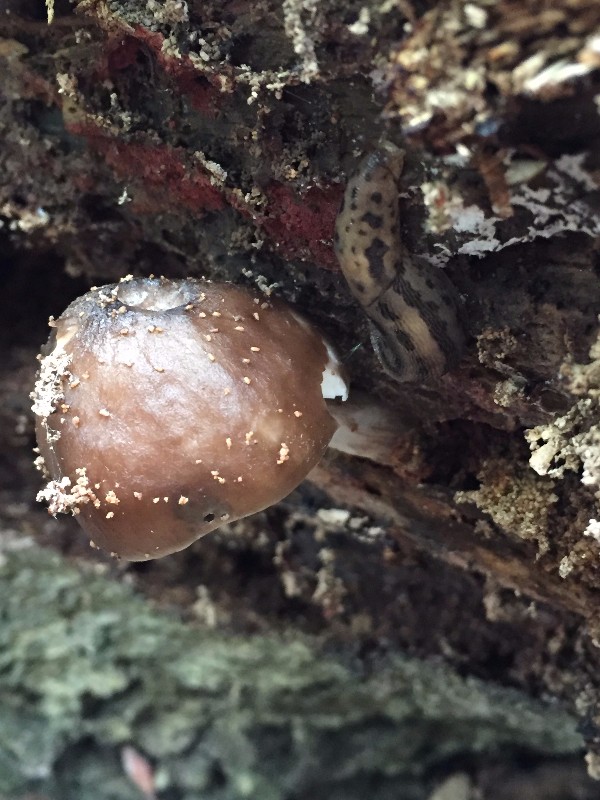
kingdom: Fungi
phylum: Basidiomycota
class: Agaricomycetes
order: Agaricales
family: Pluteaceae
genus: Pluteus
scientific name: Pluteus cervinus
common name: sodfarvet skærmhat
